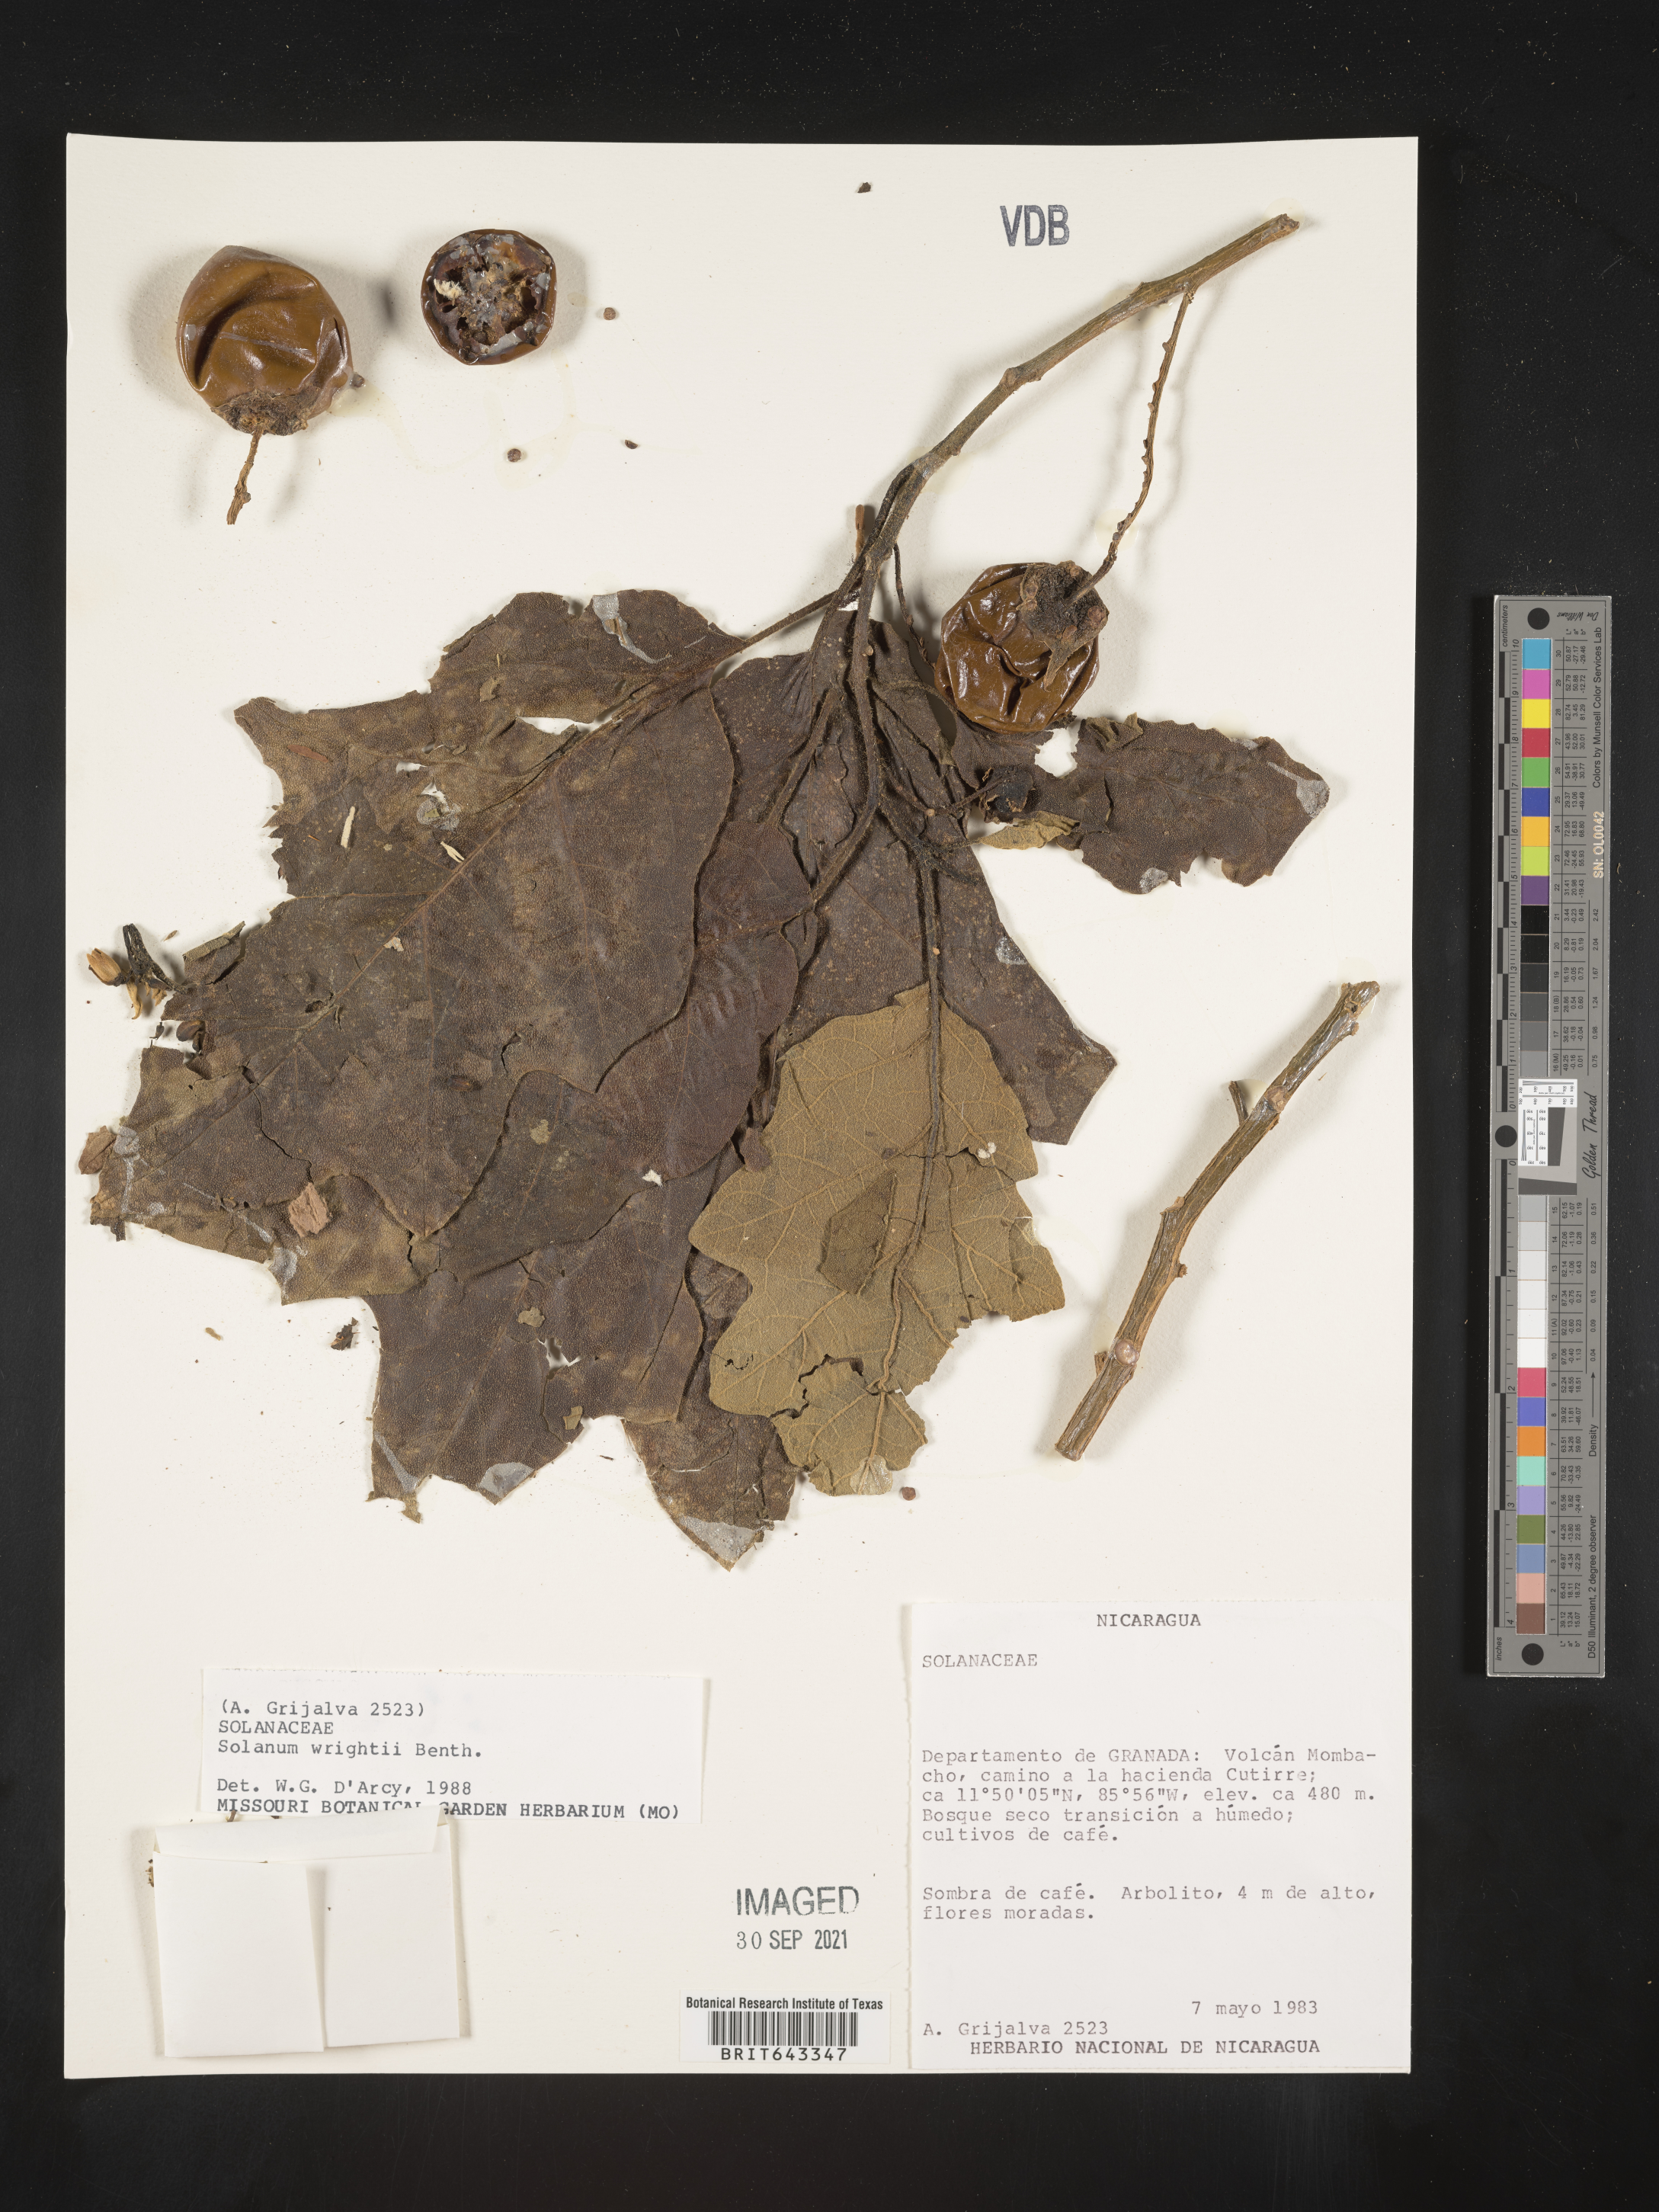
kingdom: Plantae
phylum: Tracheophyta
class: Magnoliopsida
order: Solanales
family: Solanaceae
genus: Solanum
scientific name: Solanum
